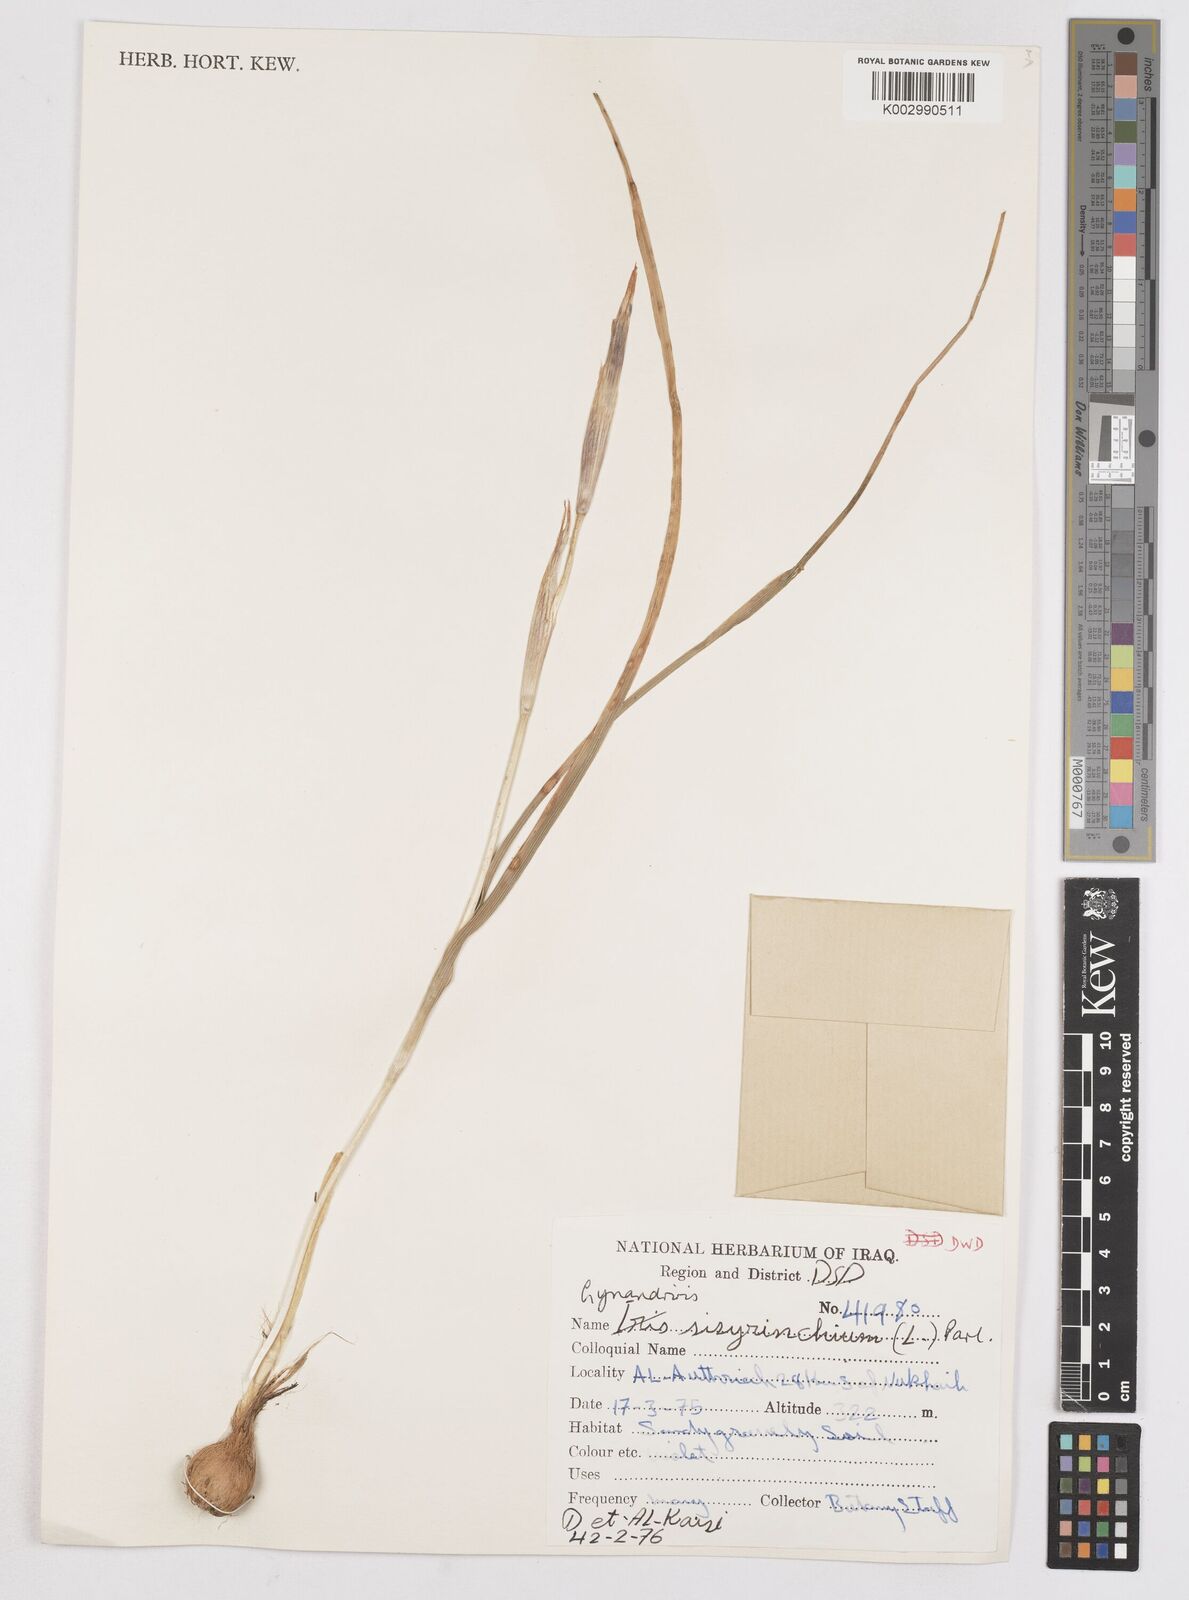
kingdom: Plantae
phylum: Tracheophyta
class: Liliopsida
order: Asparagales
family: Iridaceae
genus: Moraea
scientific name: Moraea sisyrinchium
